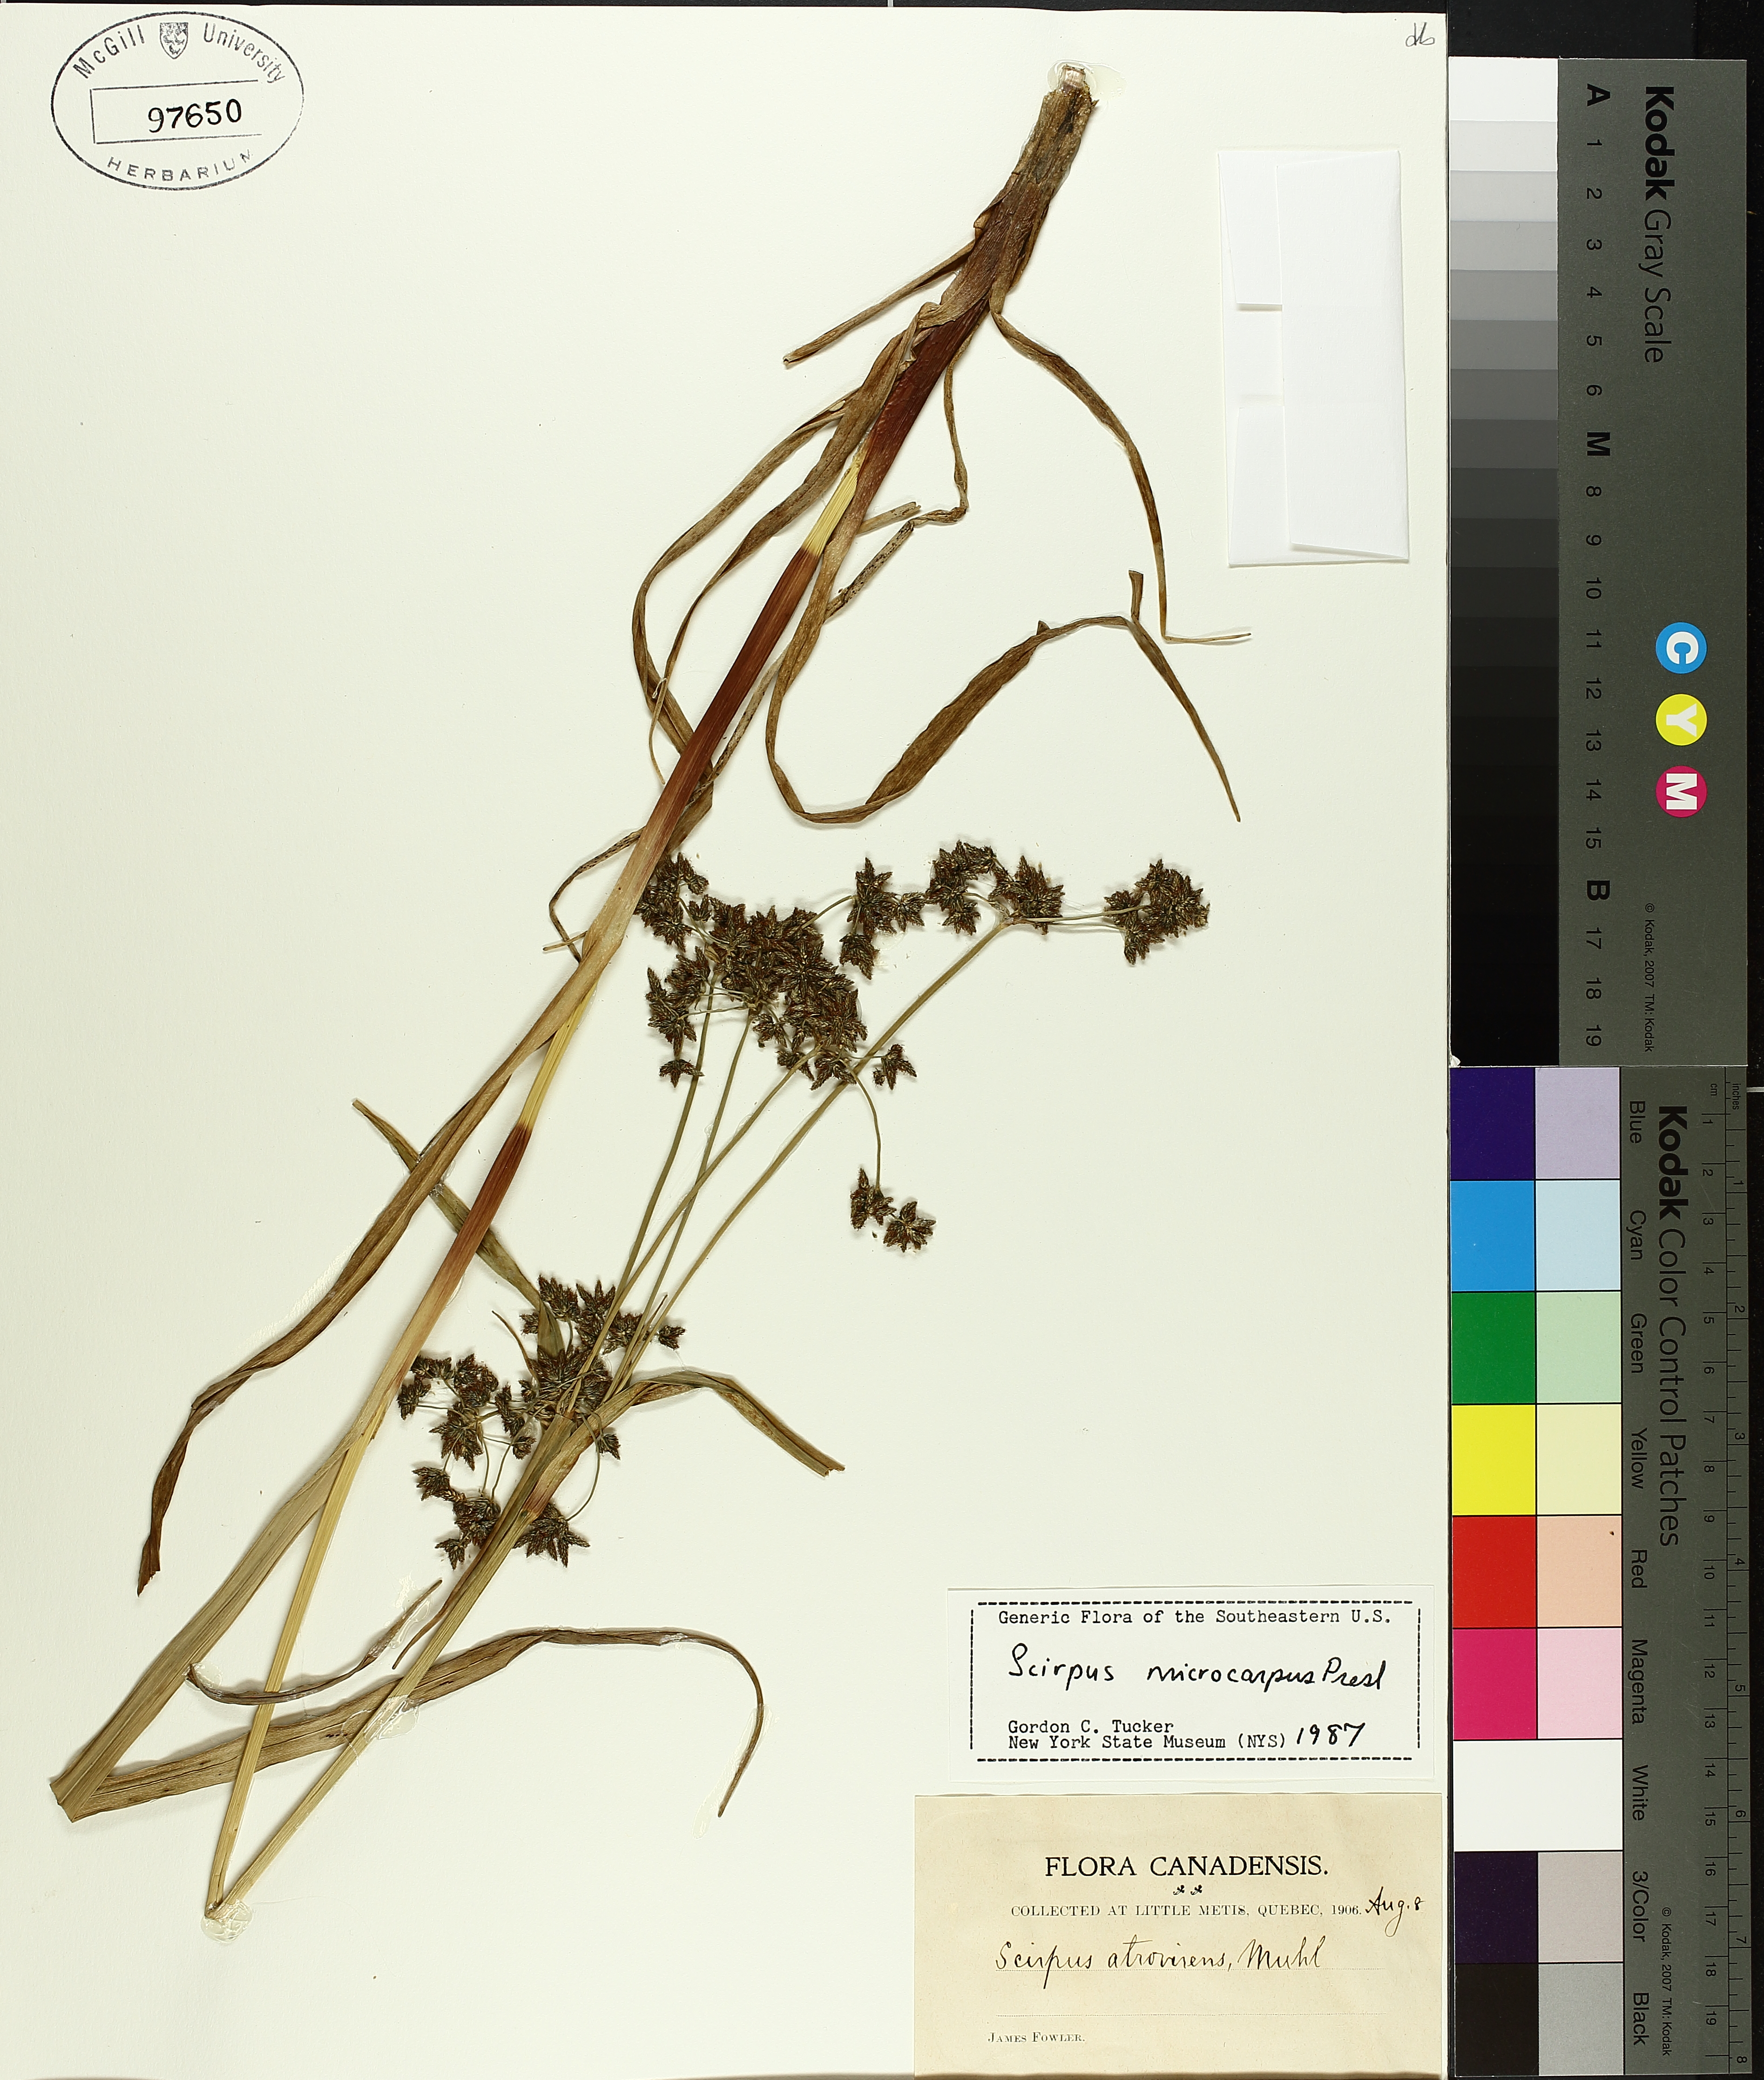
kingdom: Plantae
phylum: Tracheophyta
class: Liliopsida
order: Poales
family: Cyperaceae
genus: Scirpus
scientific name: Scirpus microcarpus
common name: Panicled bulrush
